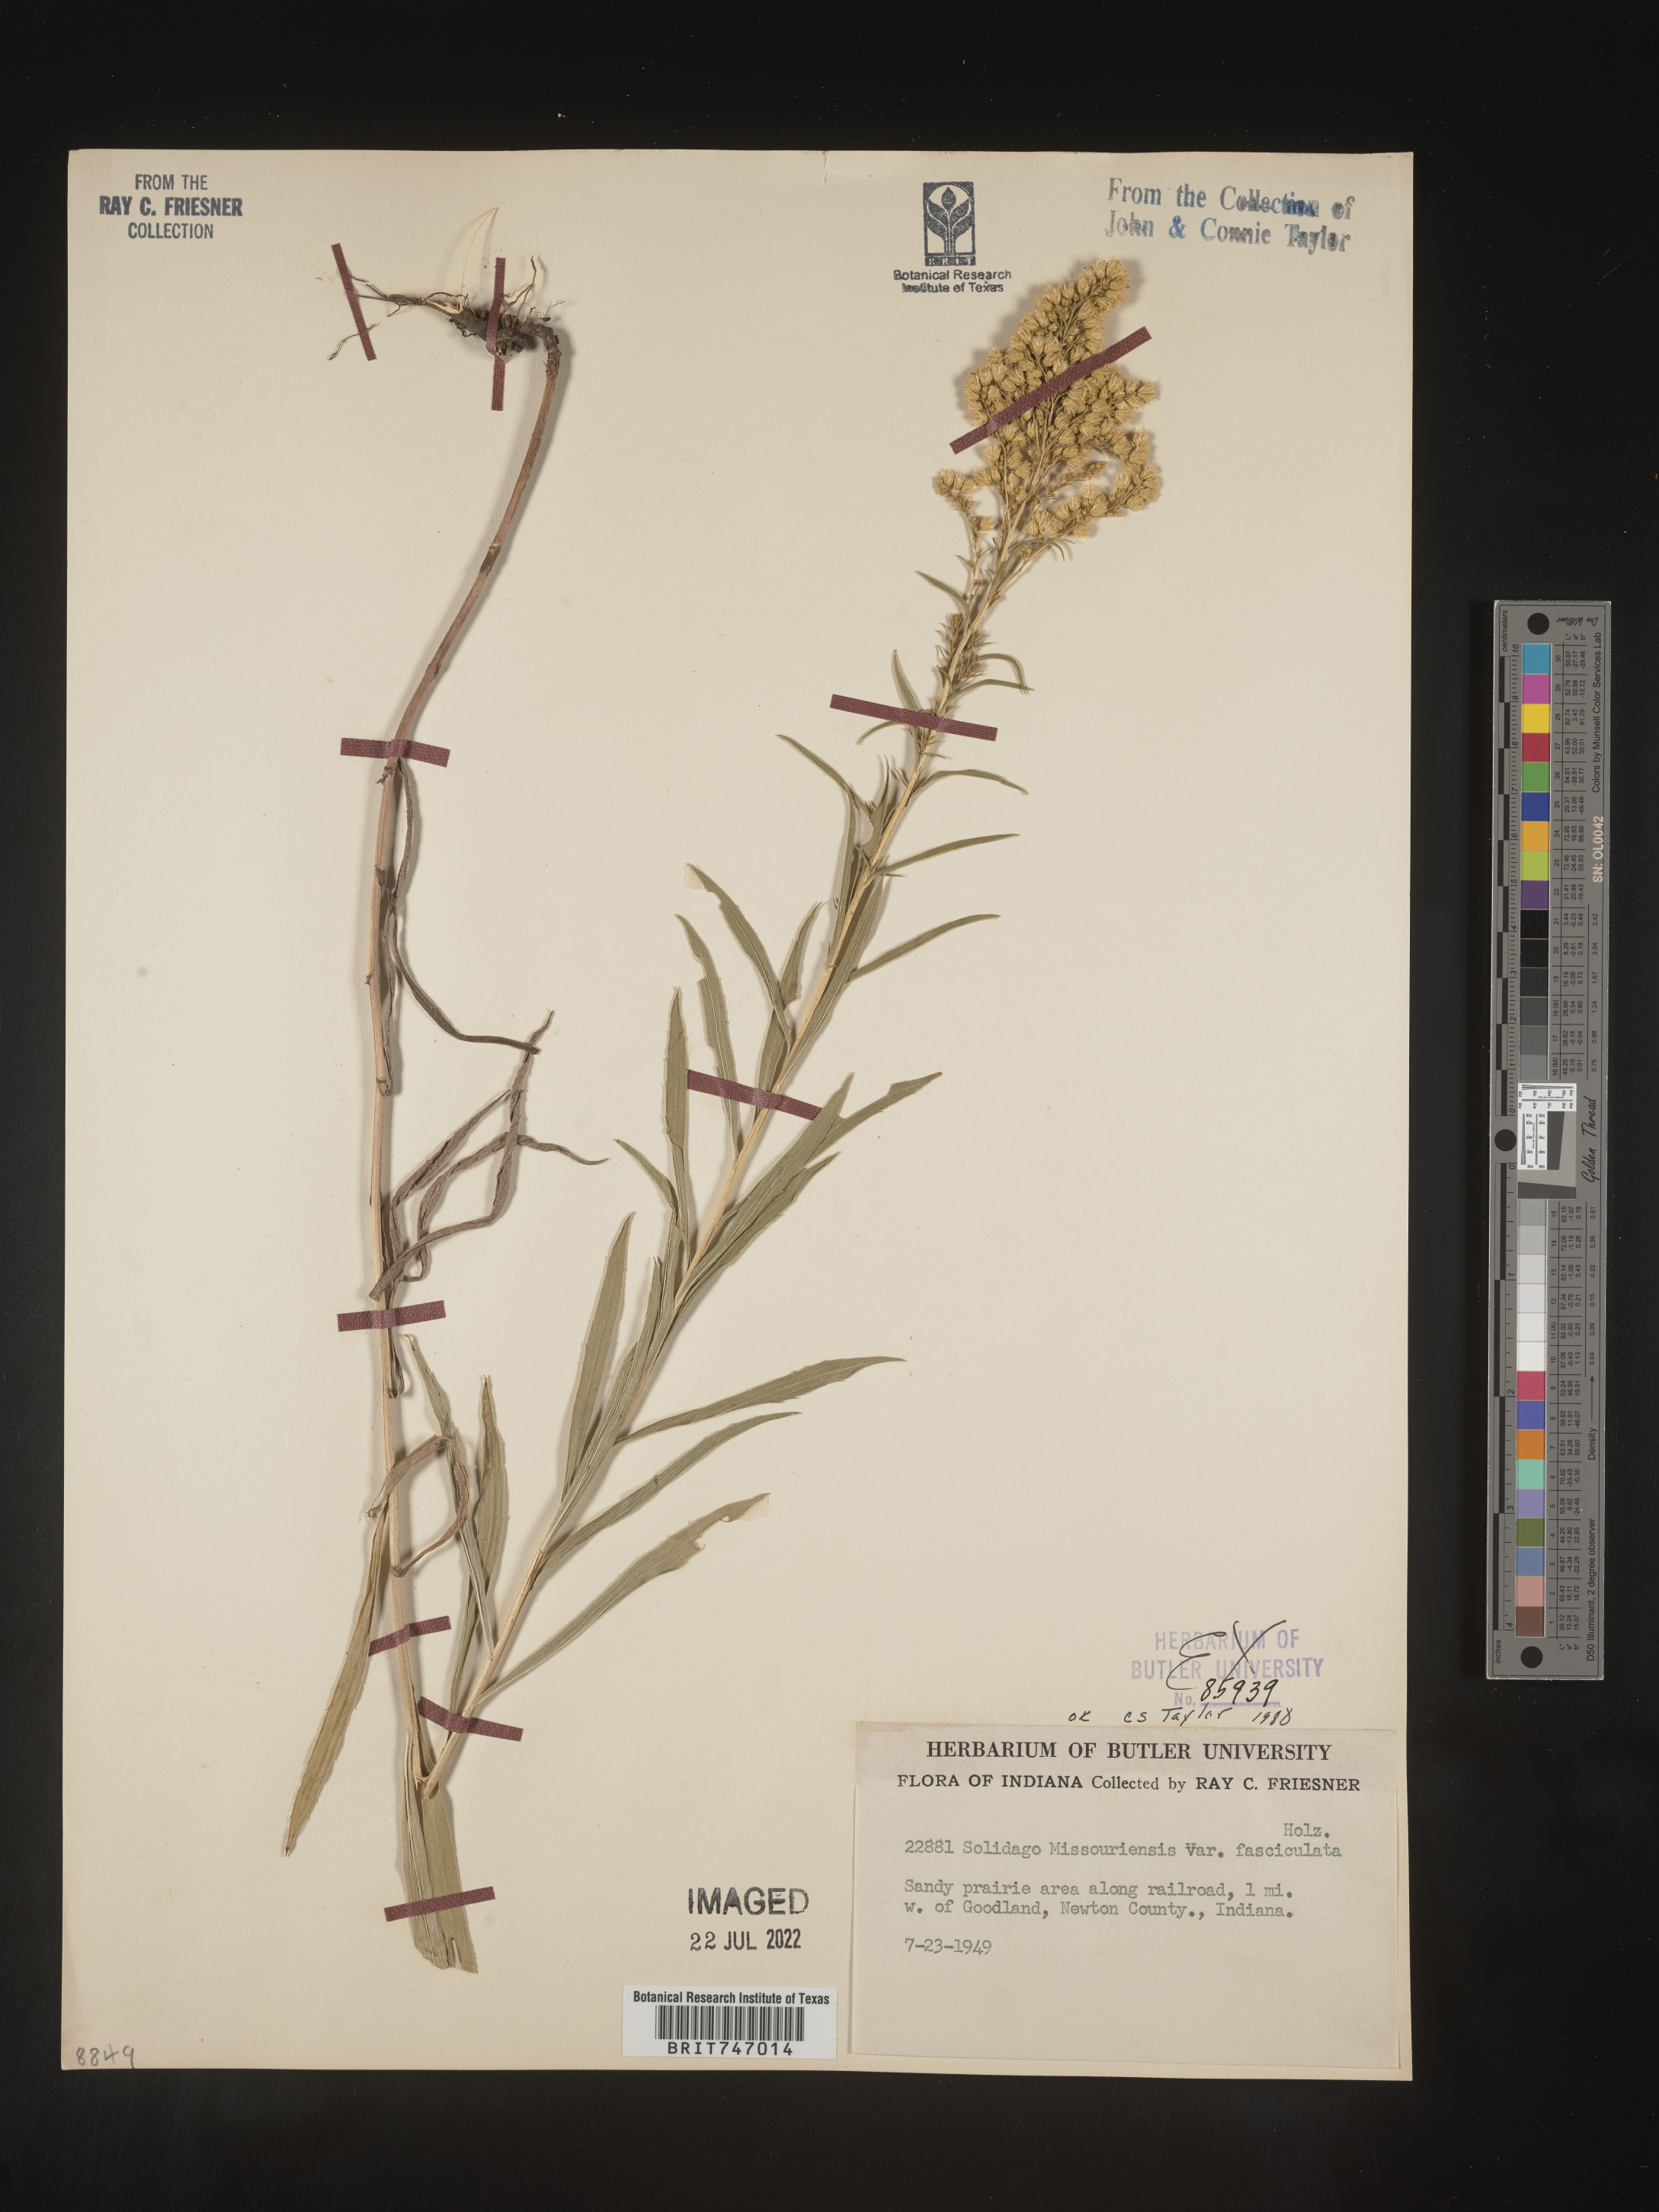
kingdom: Plantae
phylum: Tracheophyta
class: Magnoliopsida
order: Asterales
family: Asteraceae
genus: Solidago
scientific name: Solidago missouriensis
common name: Prairie goldenrod
